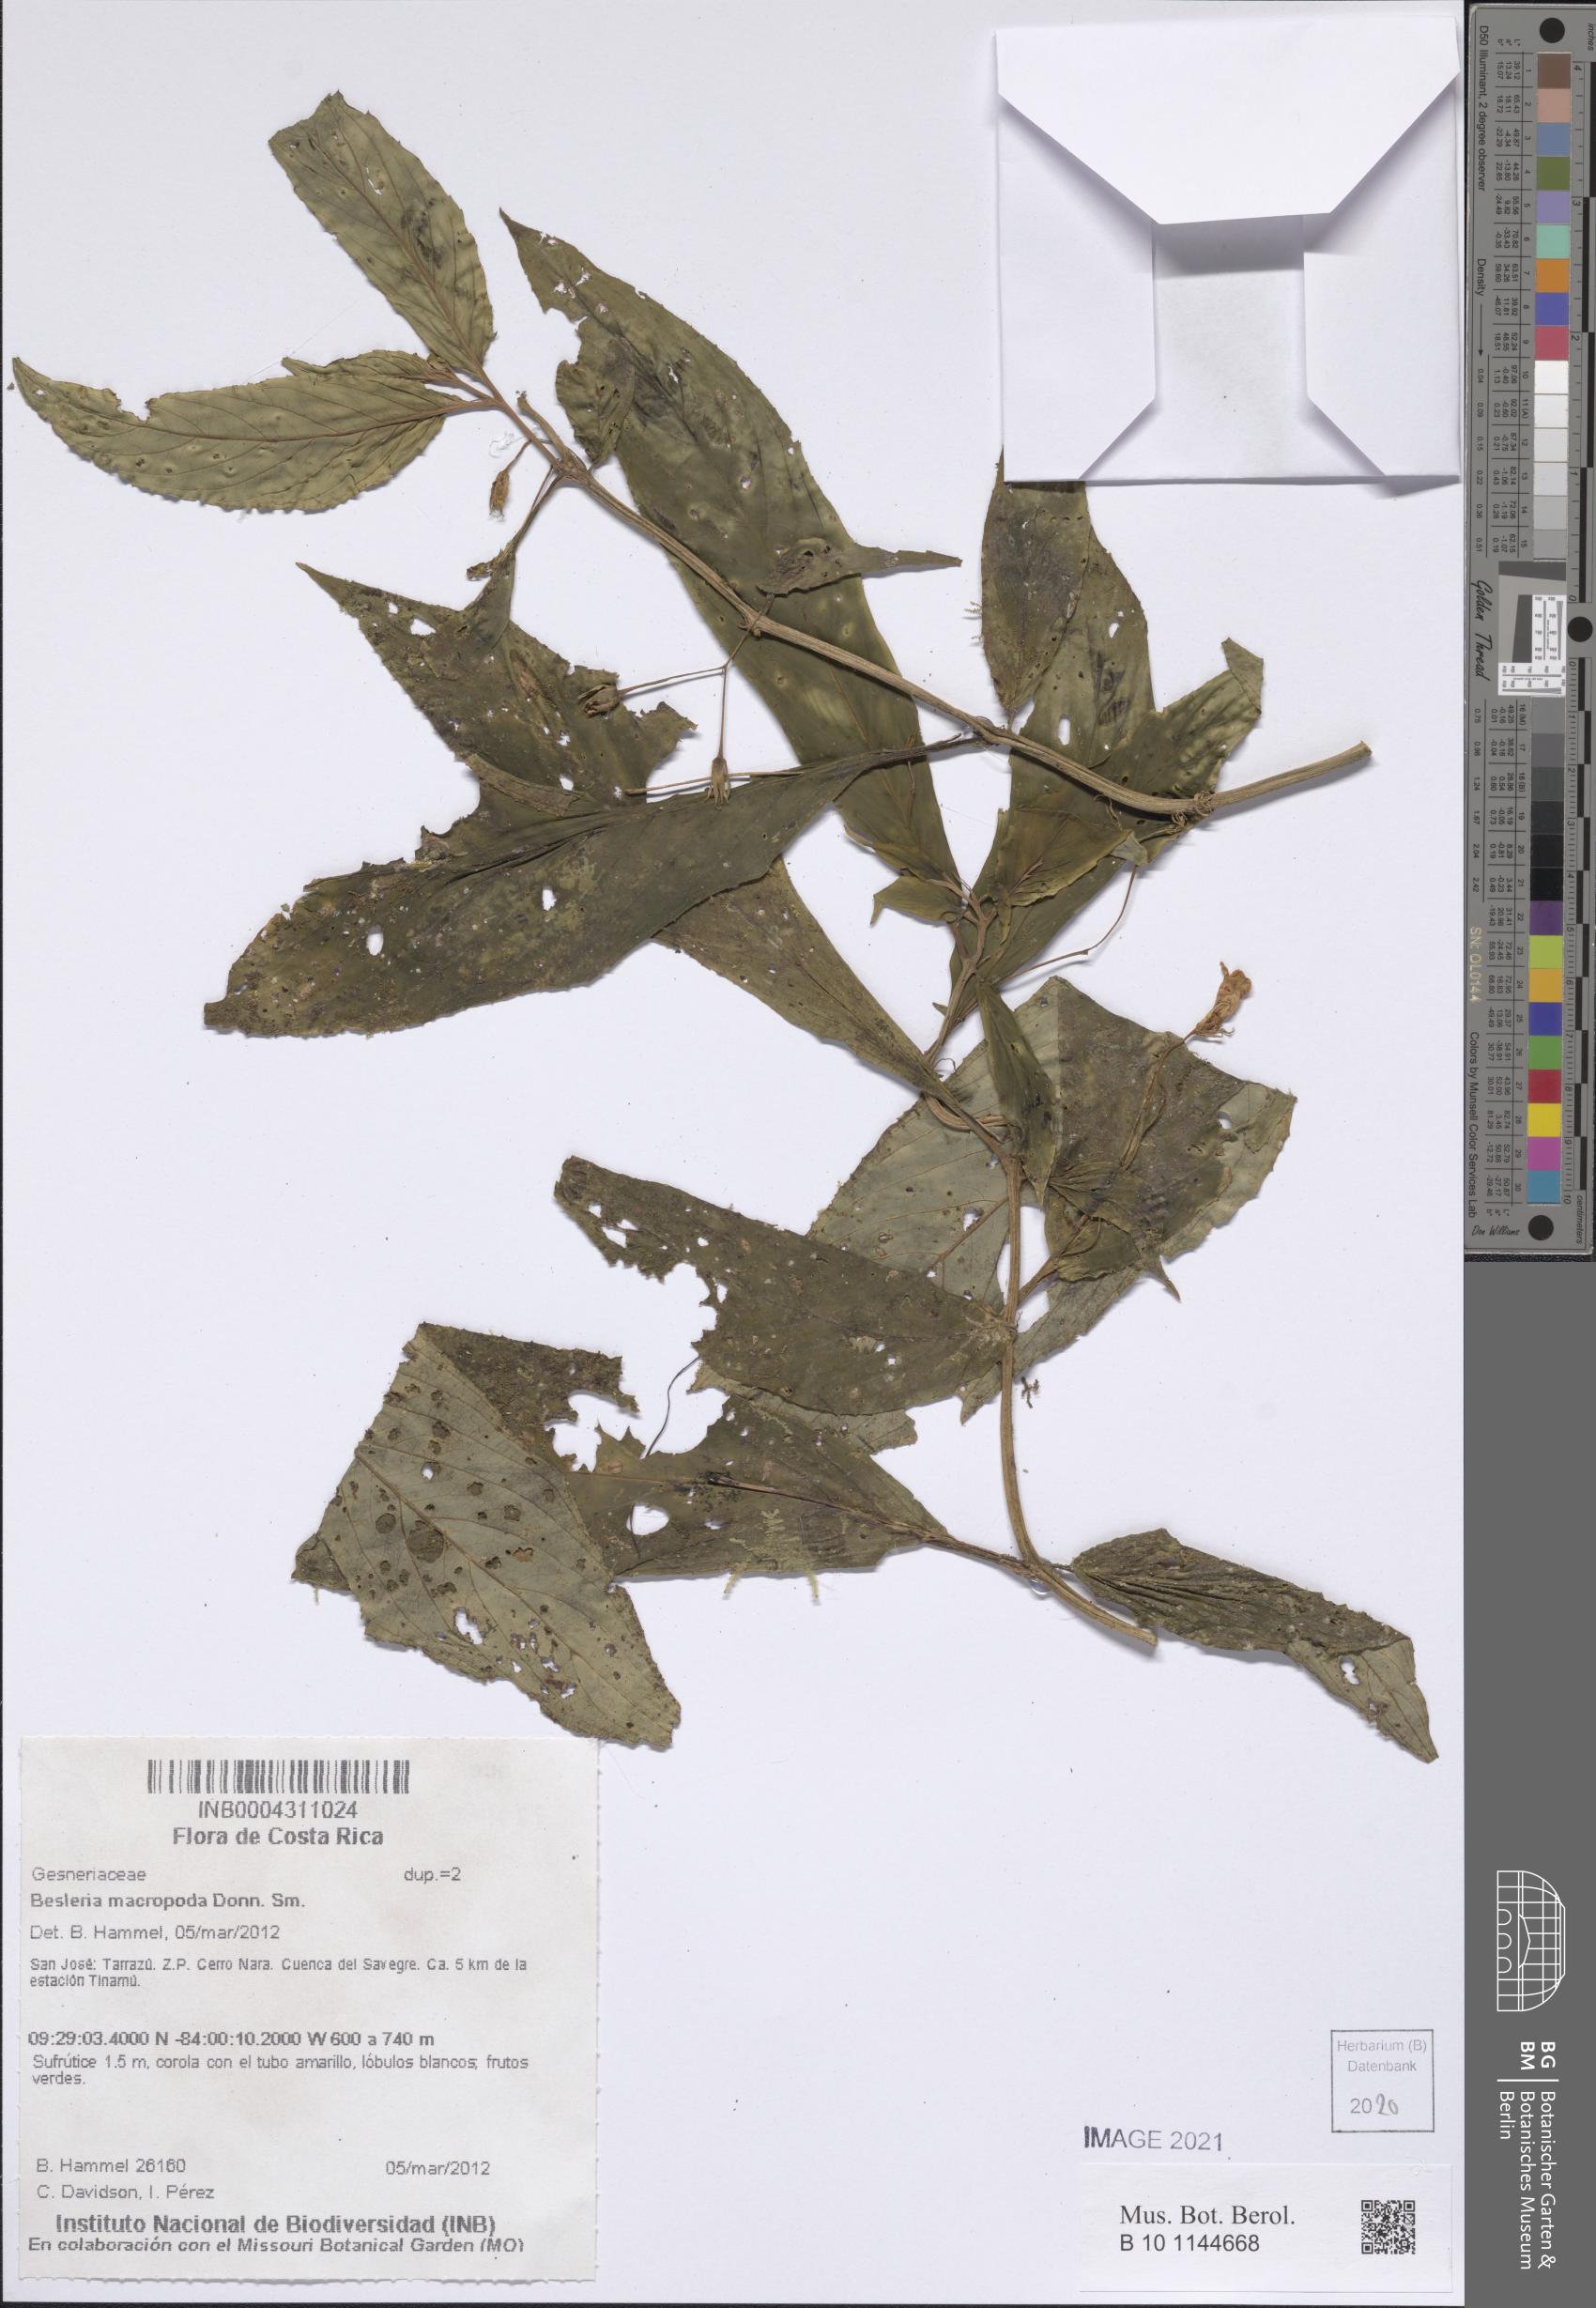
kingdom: Plantae
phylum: Tracheophyta
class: Magnoliopsida
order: Lamiales
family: Gesneriaceae
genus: Besleria
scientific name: Besleria macropoda
